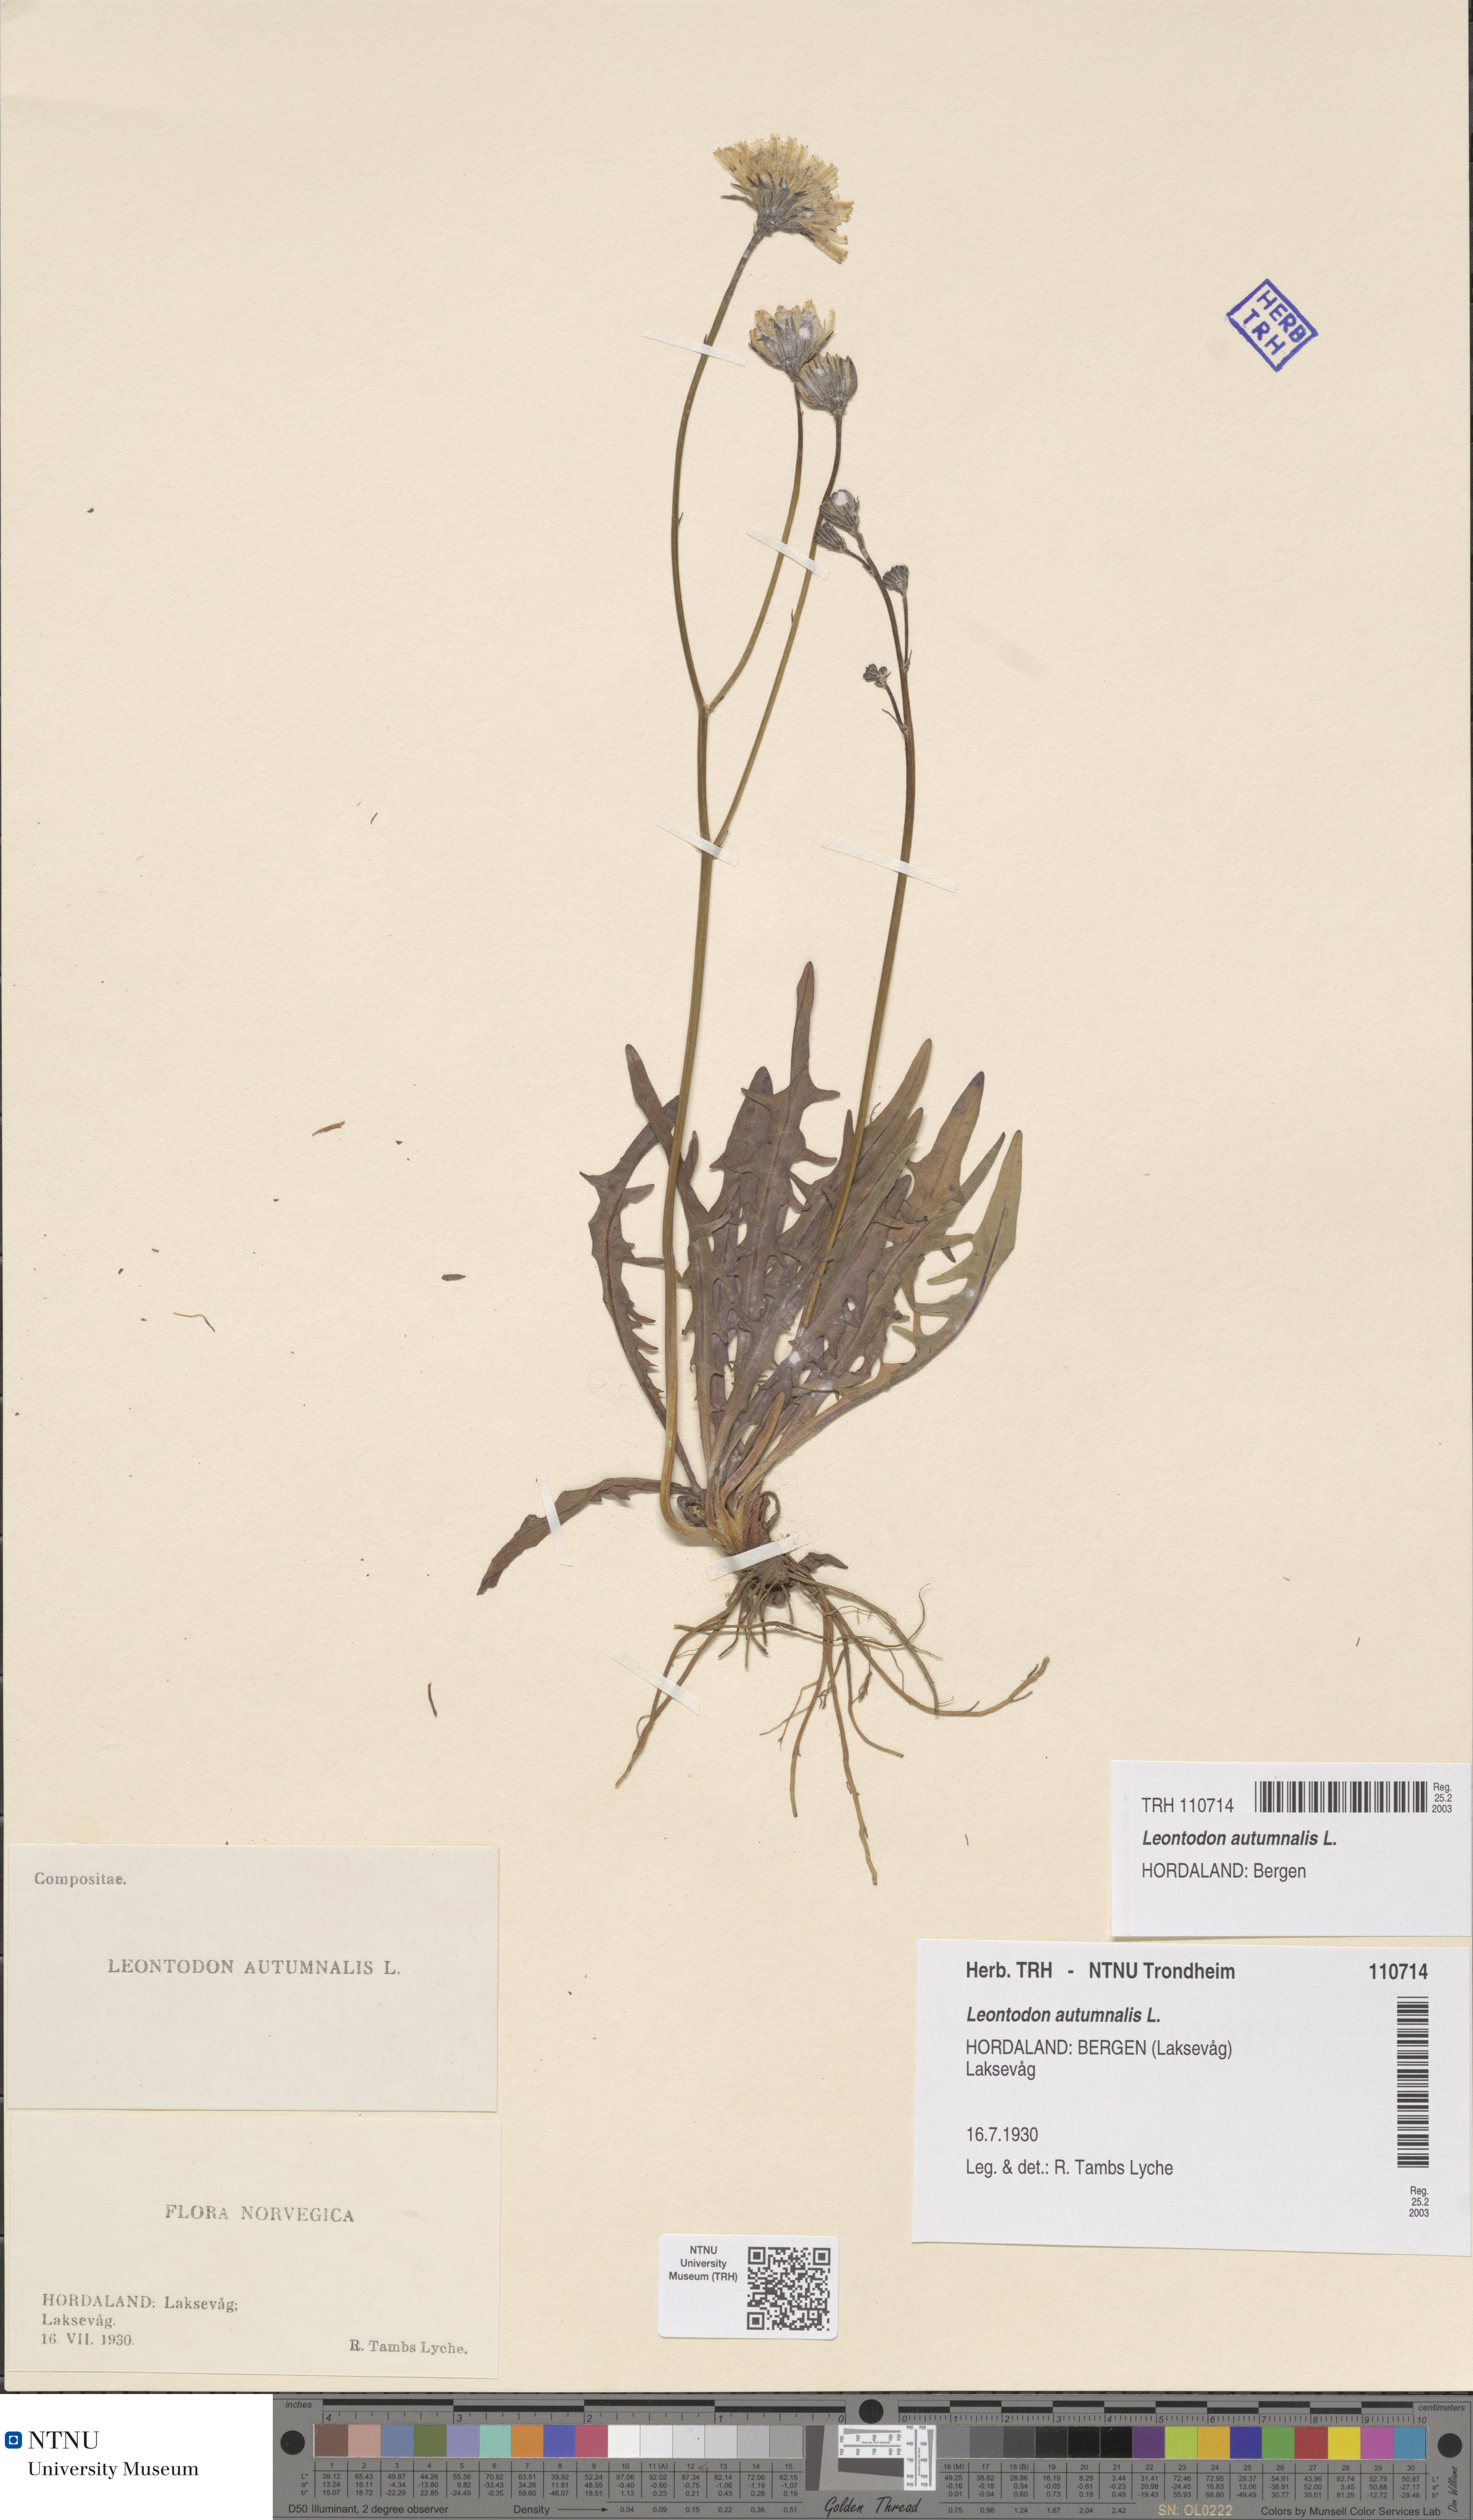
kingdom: Plantae
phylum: Tracheophyta
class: Magnoliopsida
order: Asterales
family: Asteraceae
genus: Scorzoneroides
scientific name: Scorzoneroides autumnalis
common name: Autumn hawkbit
